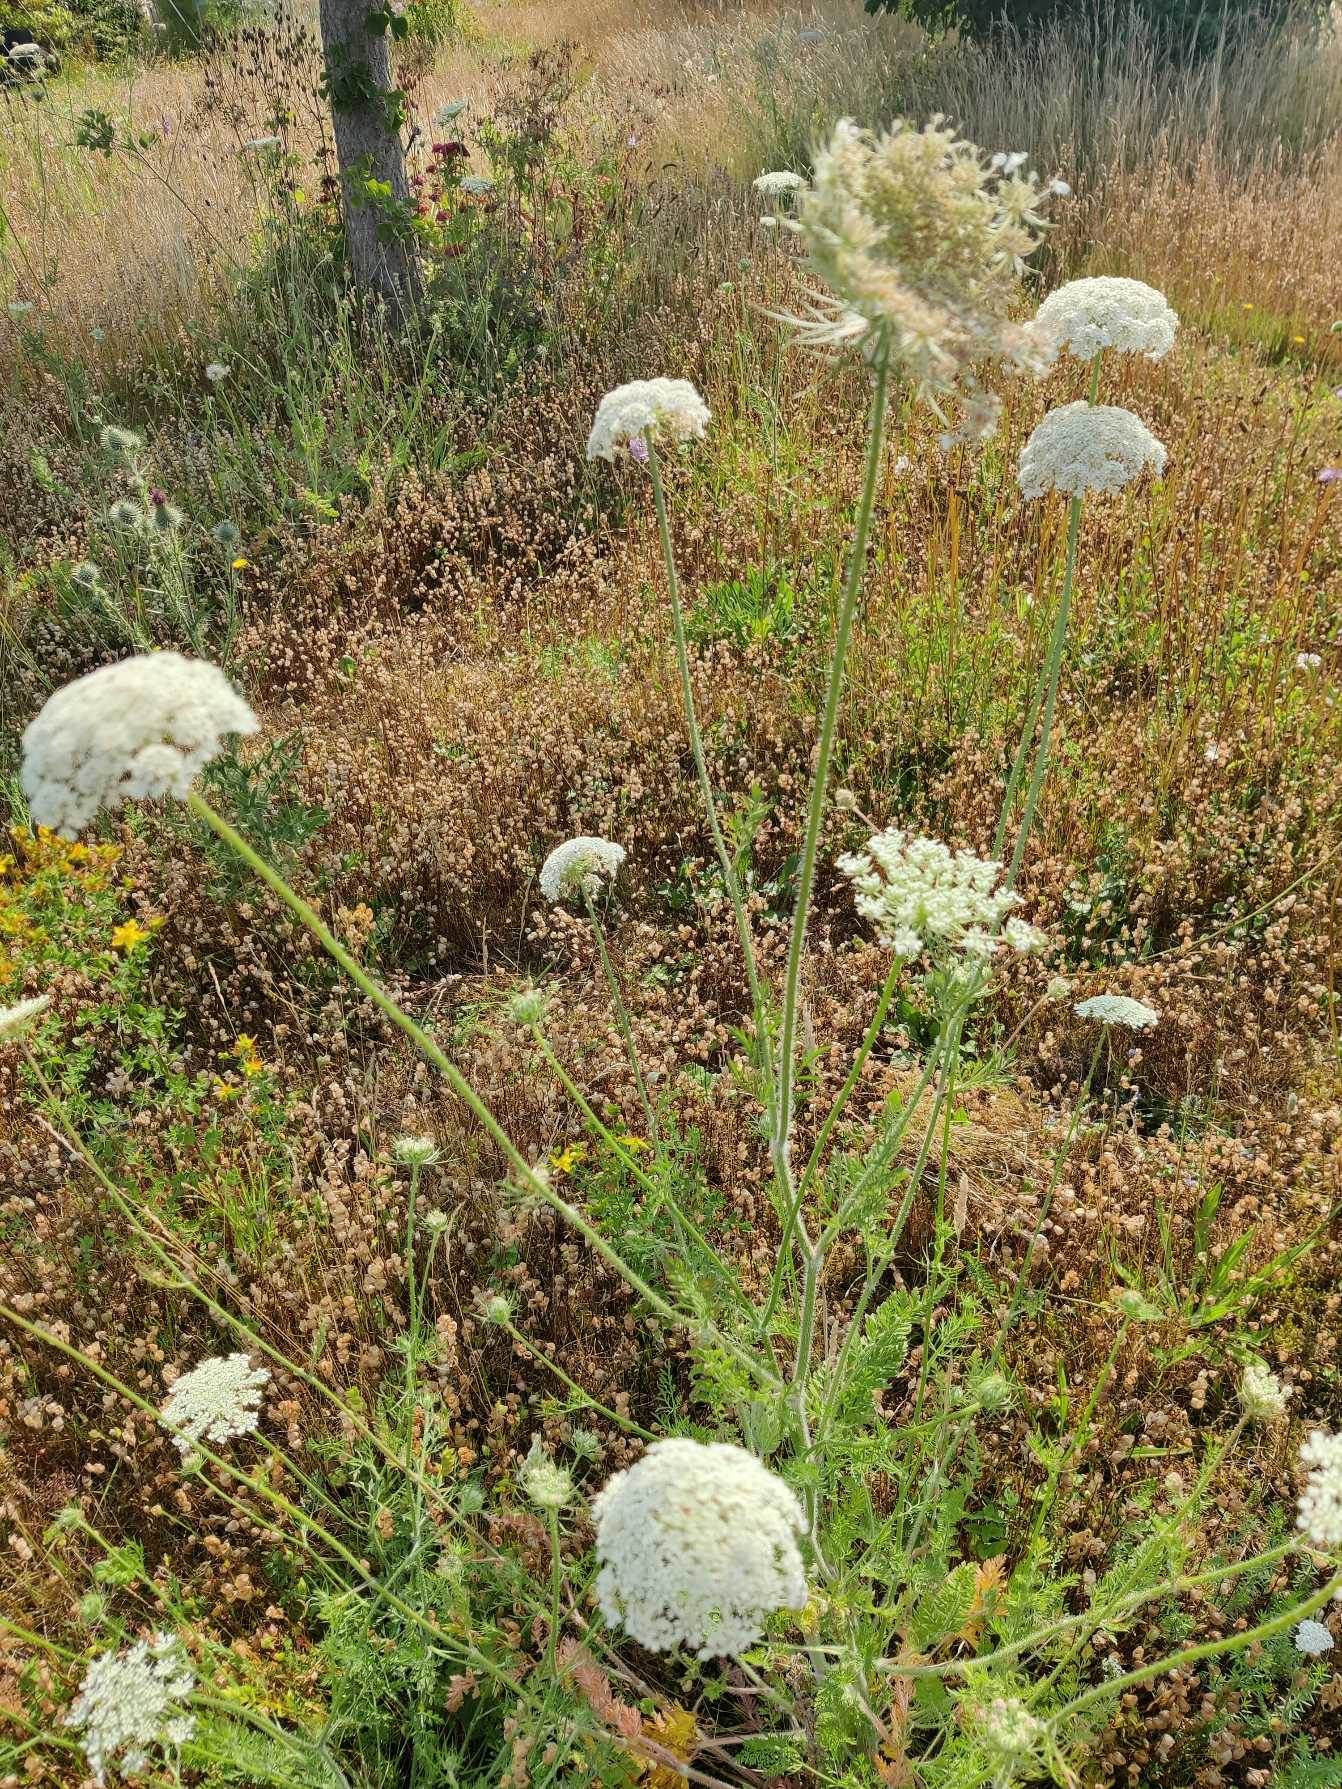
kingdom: Plantae
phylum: Tracheophyta
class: Magnoliopsida
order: Apiales
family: Apiaceae
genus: Daucus
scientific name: Daucus carota
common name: Vild gulerod
